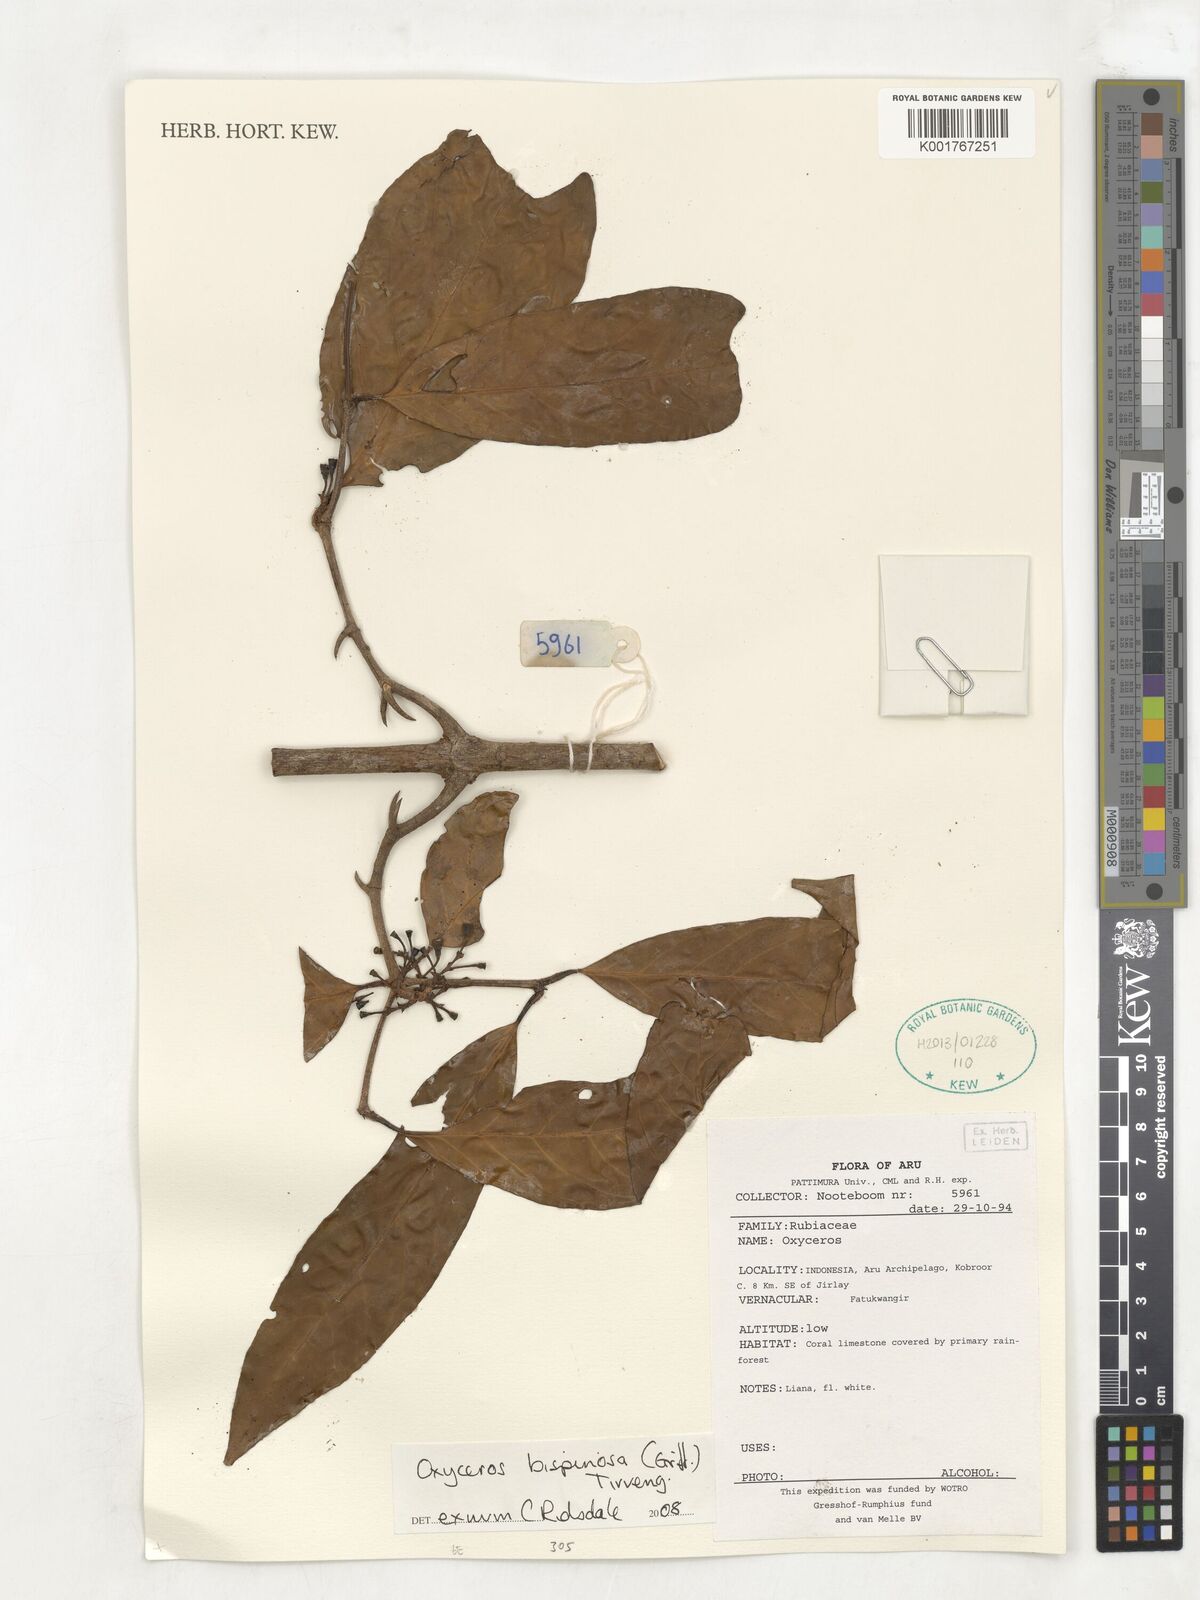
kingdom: Plantae
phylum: Tracheophyta
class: Magnoliopsida
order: Gentianales
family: Rubiaceae
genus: Oxyceros
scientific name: Oxyceros bispinosus
